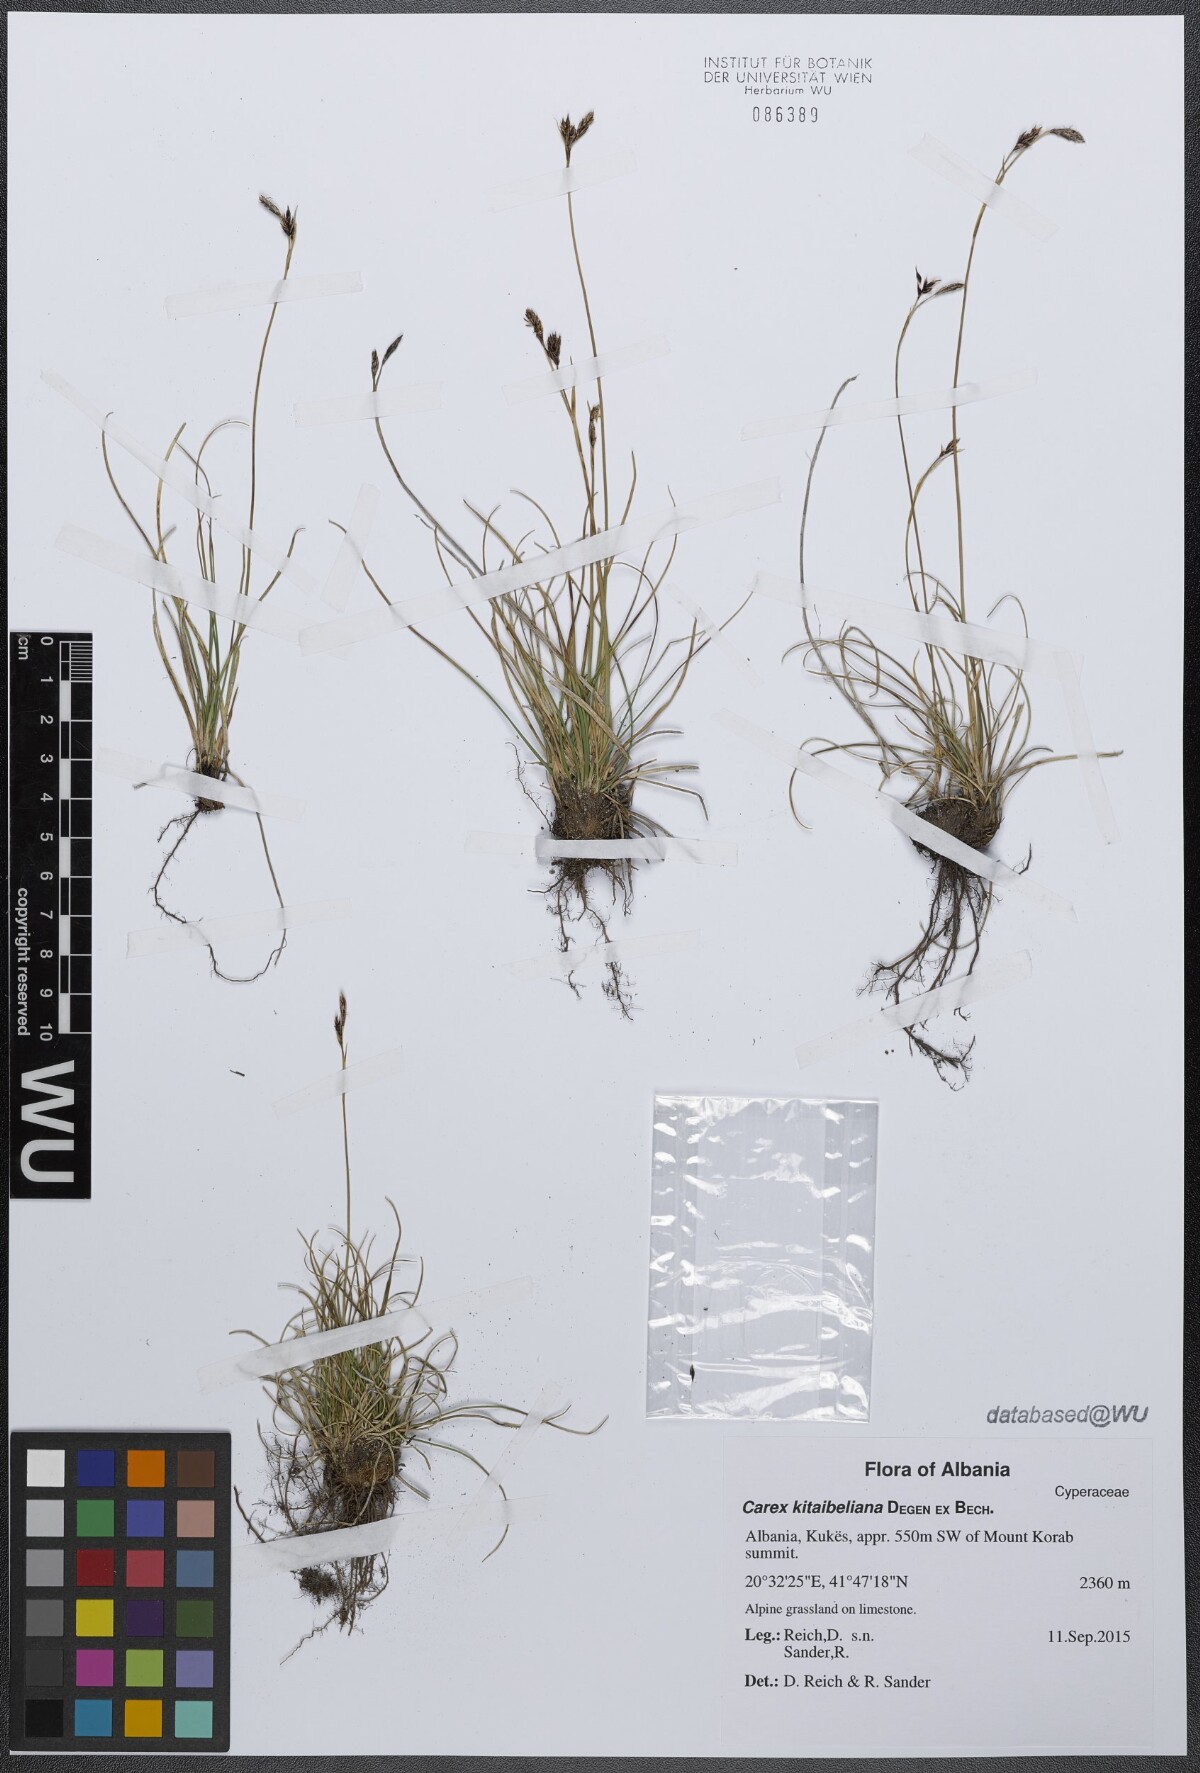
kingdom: Plantae
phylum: Tracheophyta
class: Liliopsida
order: Poales
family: Cyperaceae
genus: Carex
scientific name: Carex kitaibeliana
